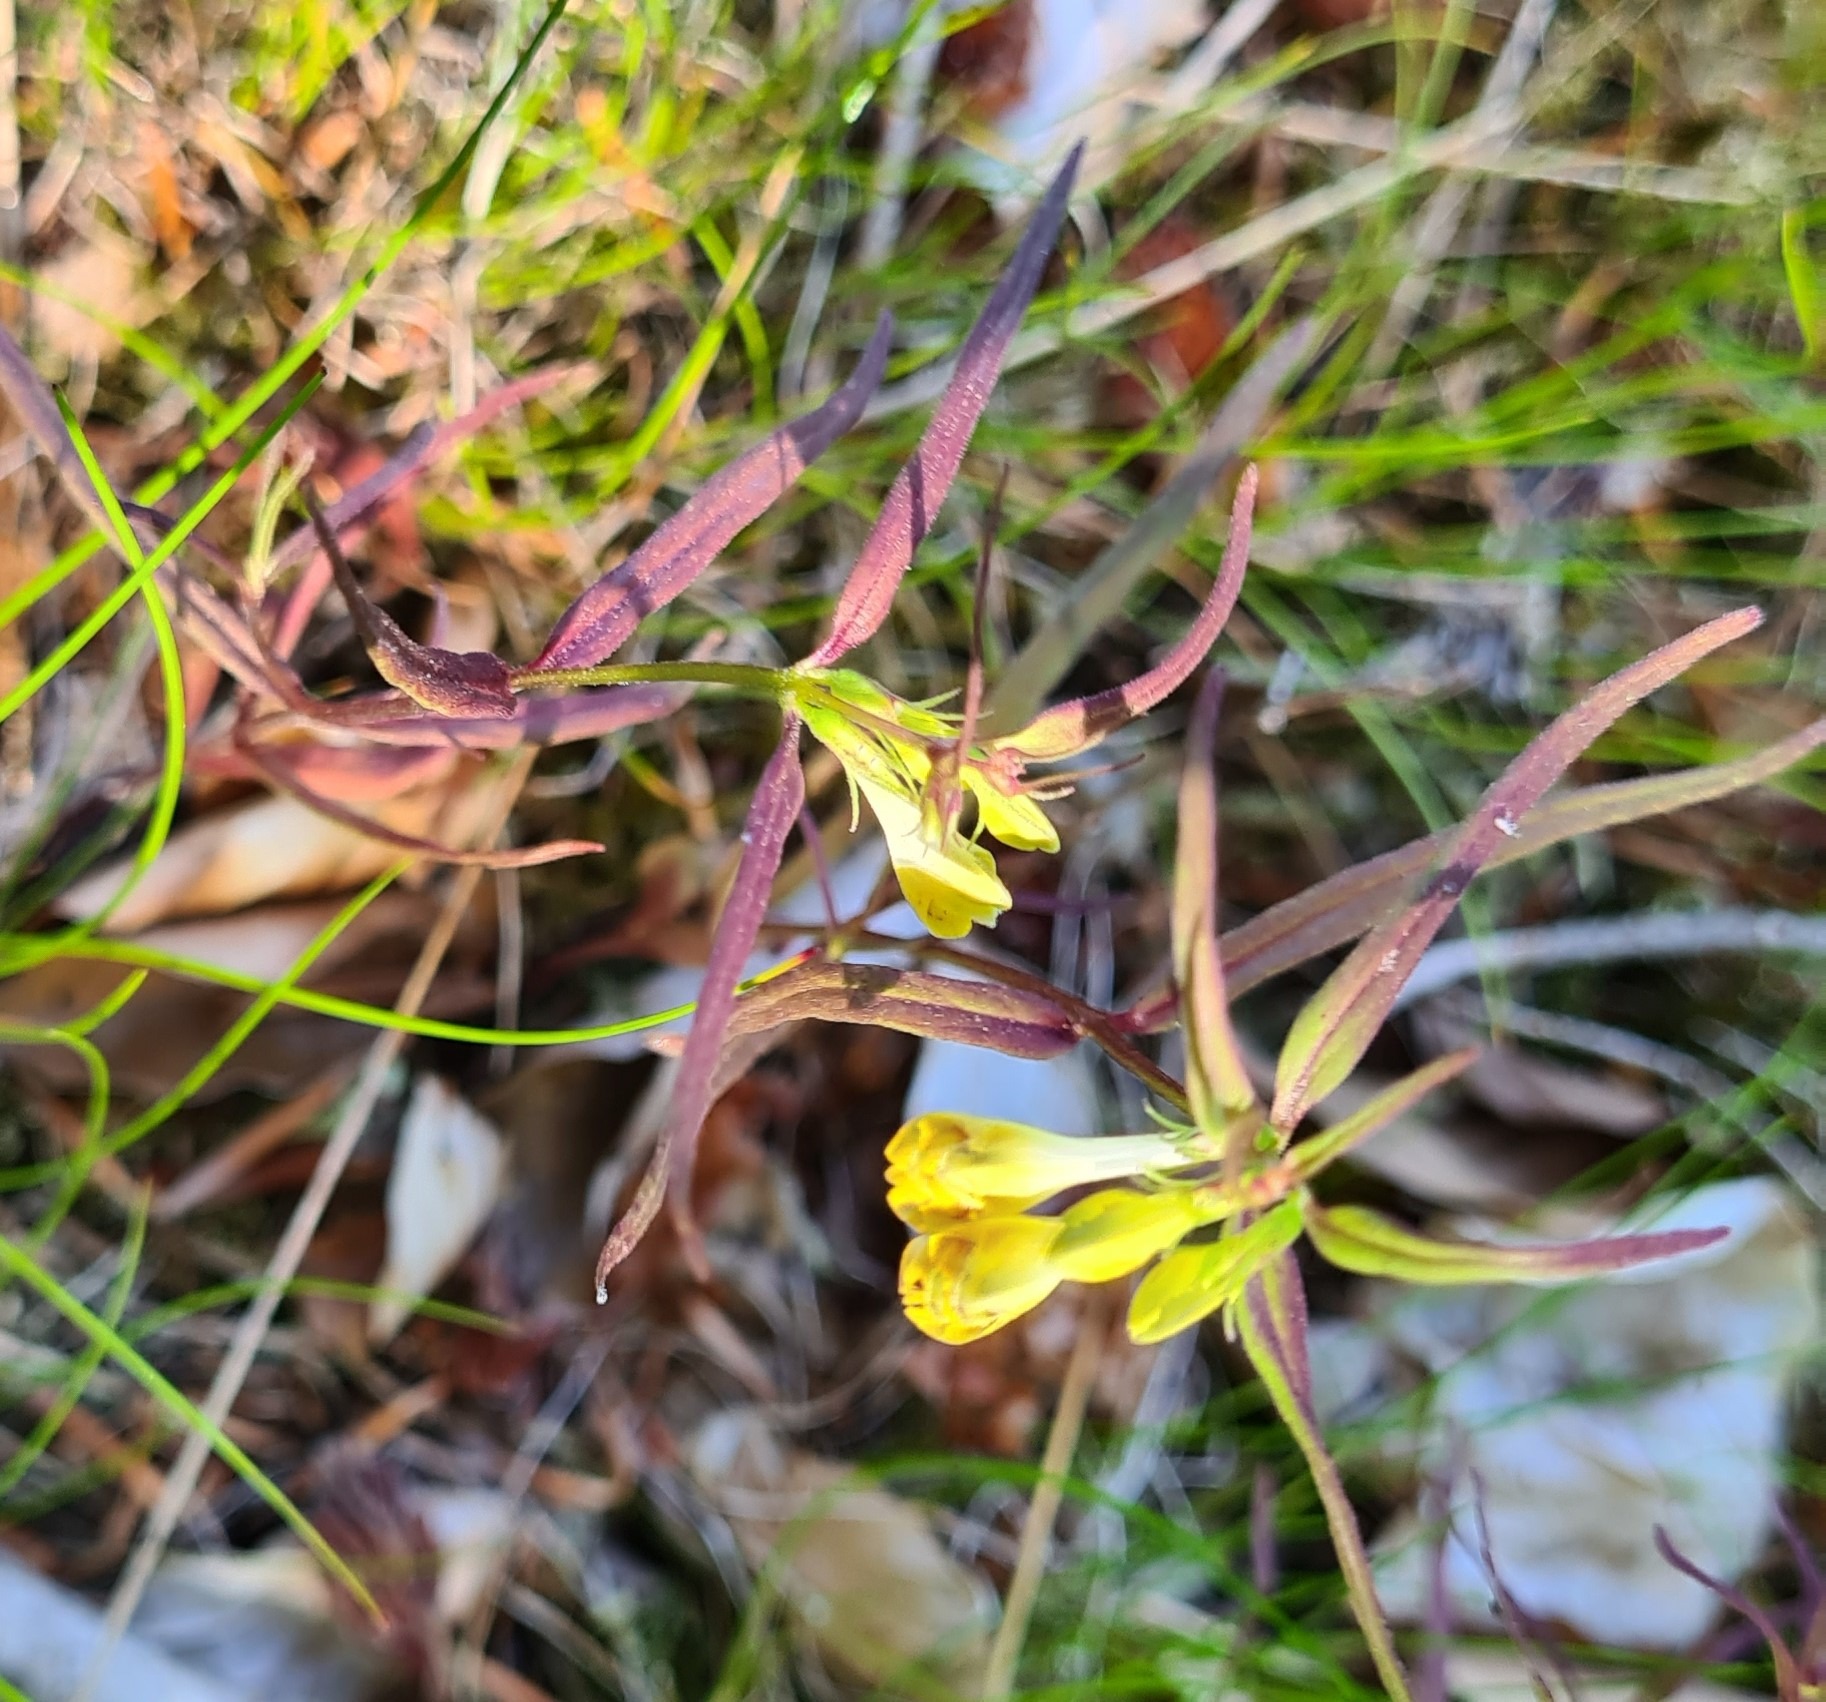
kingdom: Plantae
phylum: Tracheophyta
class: Magnoliopsida
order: Lamiales
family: Orobanchaceae
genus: Melampyrum
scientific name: Melampyrum pratense
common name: Almindelig kohvede
